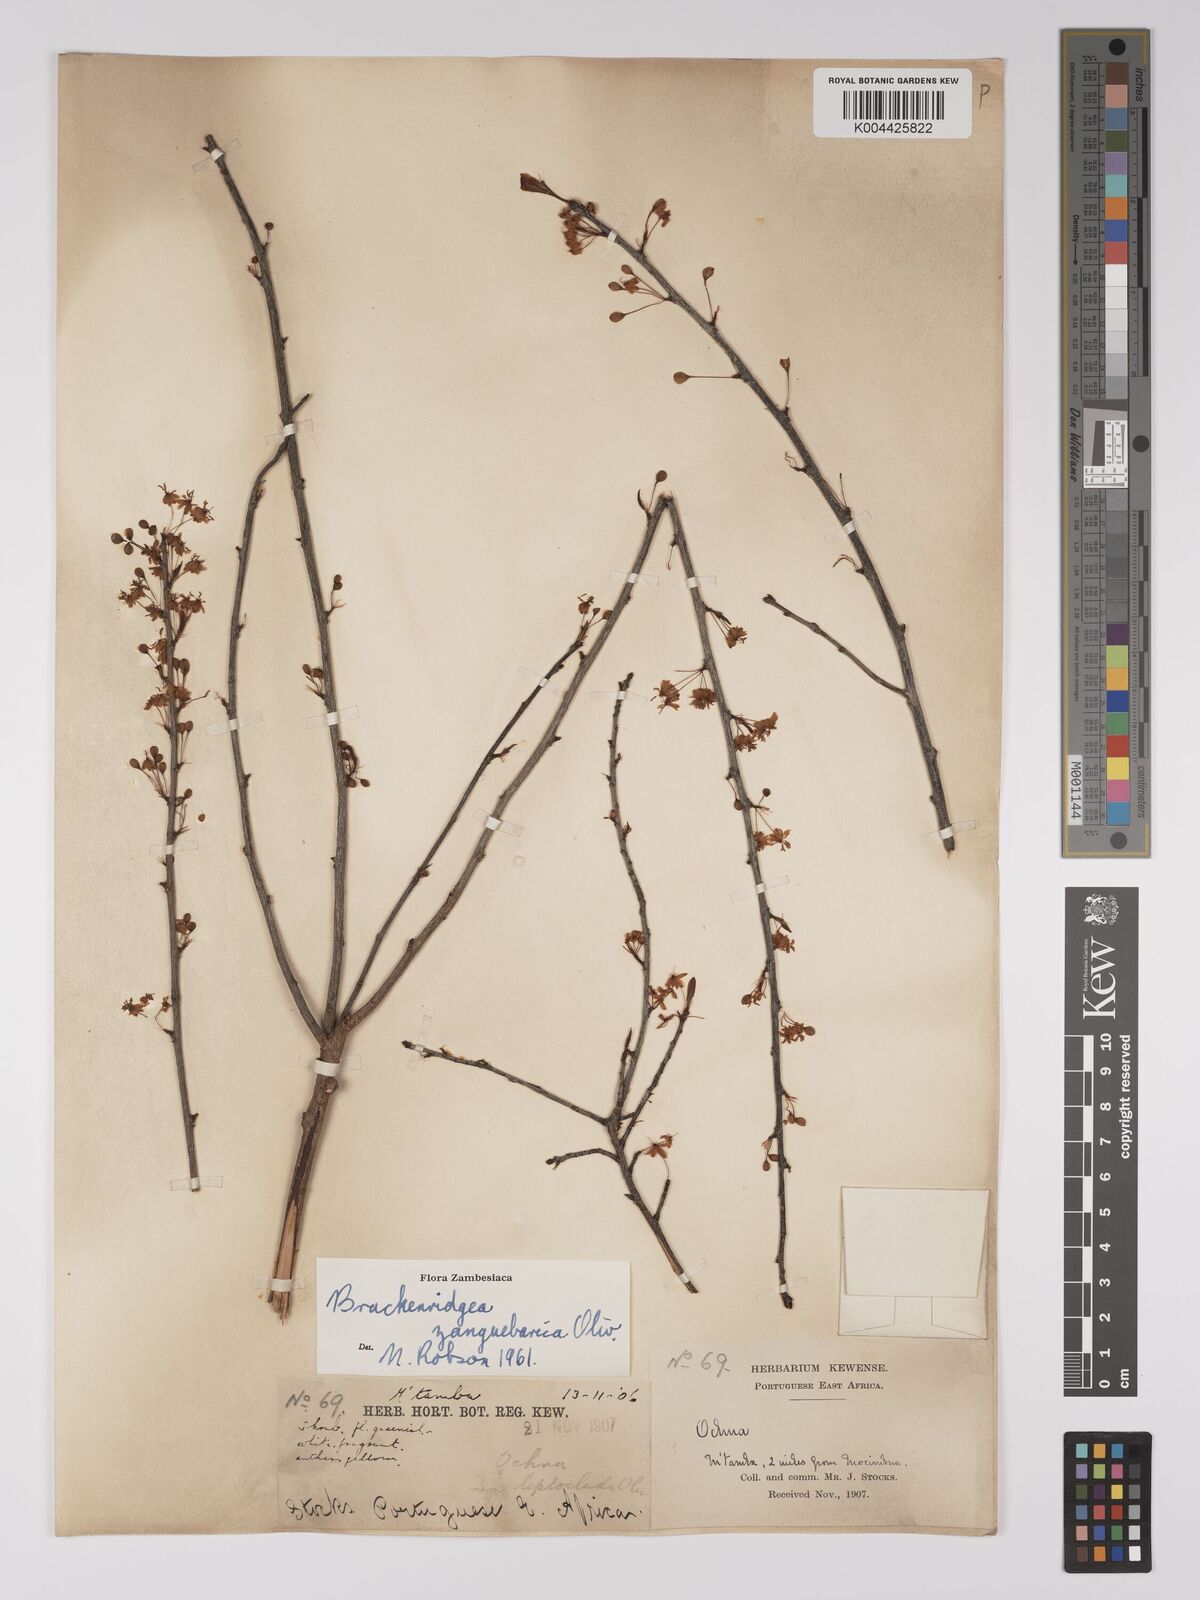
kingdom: Plantae
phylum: Tracheophyta
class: Magnoliopsida
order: Malpighiales
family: Ochnaceae
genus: Brackenridgea
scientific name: Brackenridgea zanguebarica
